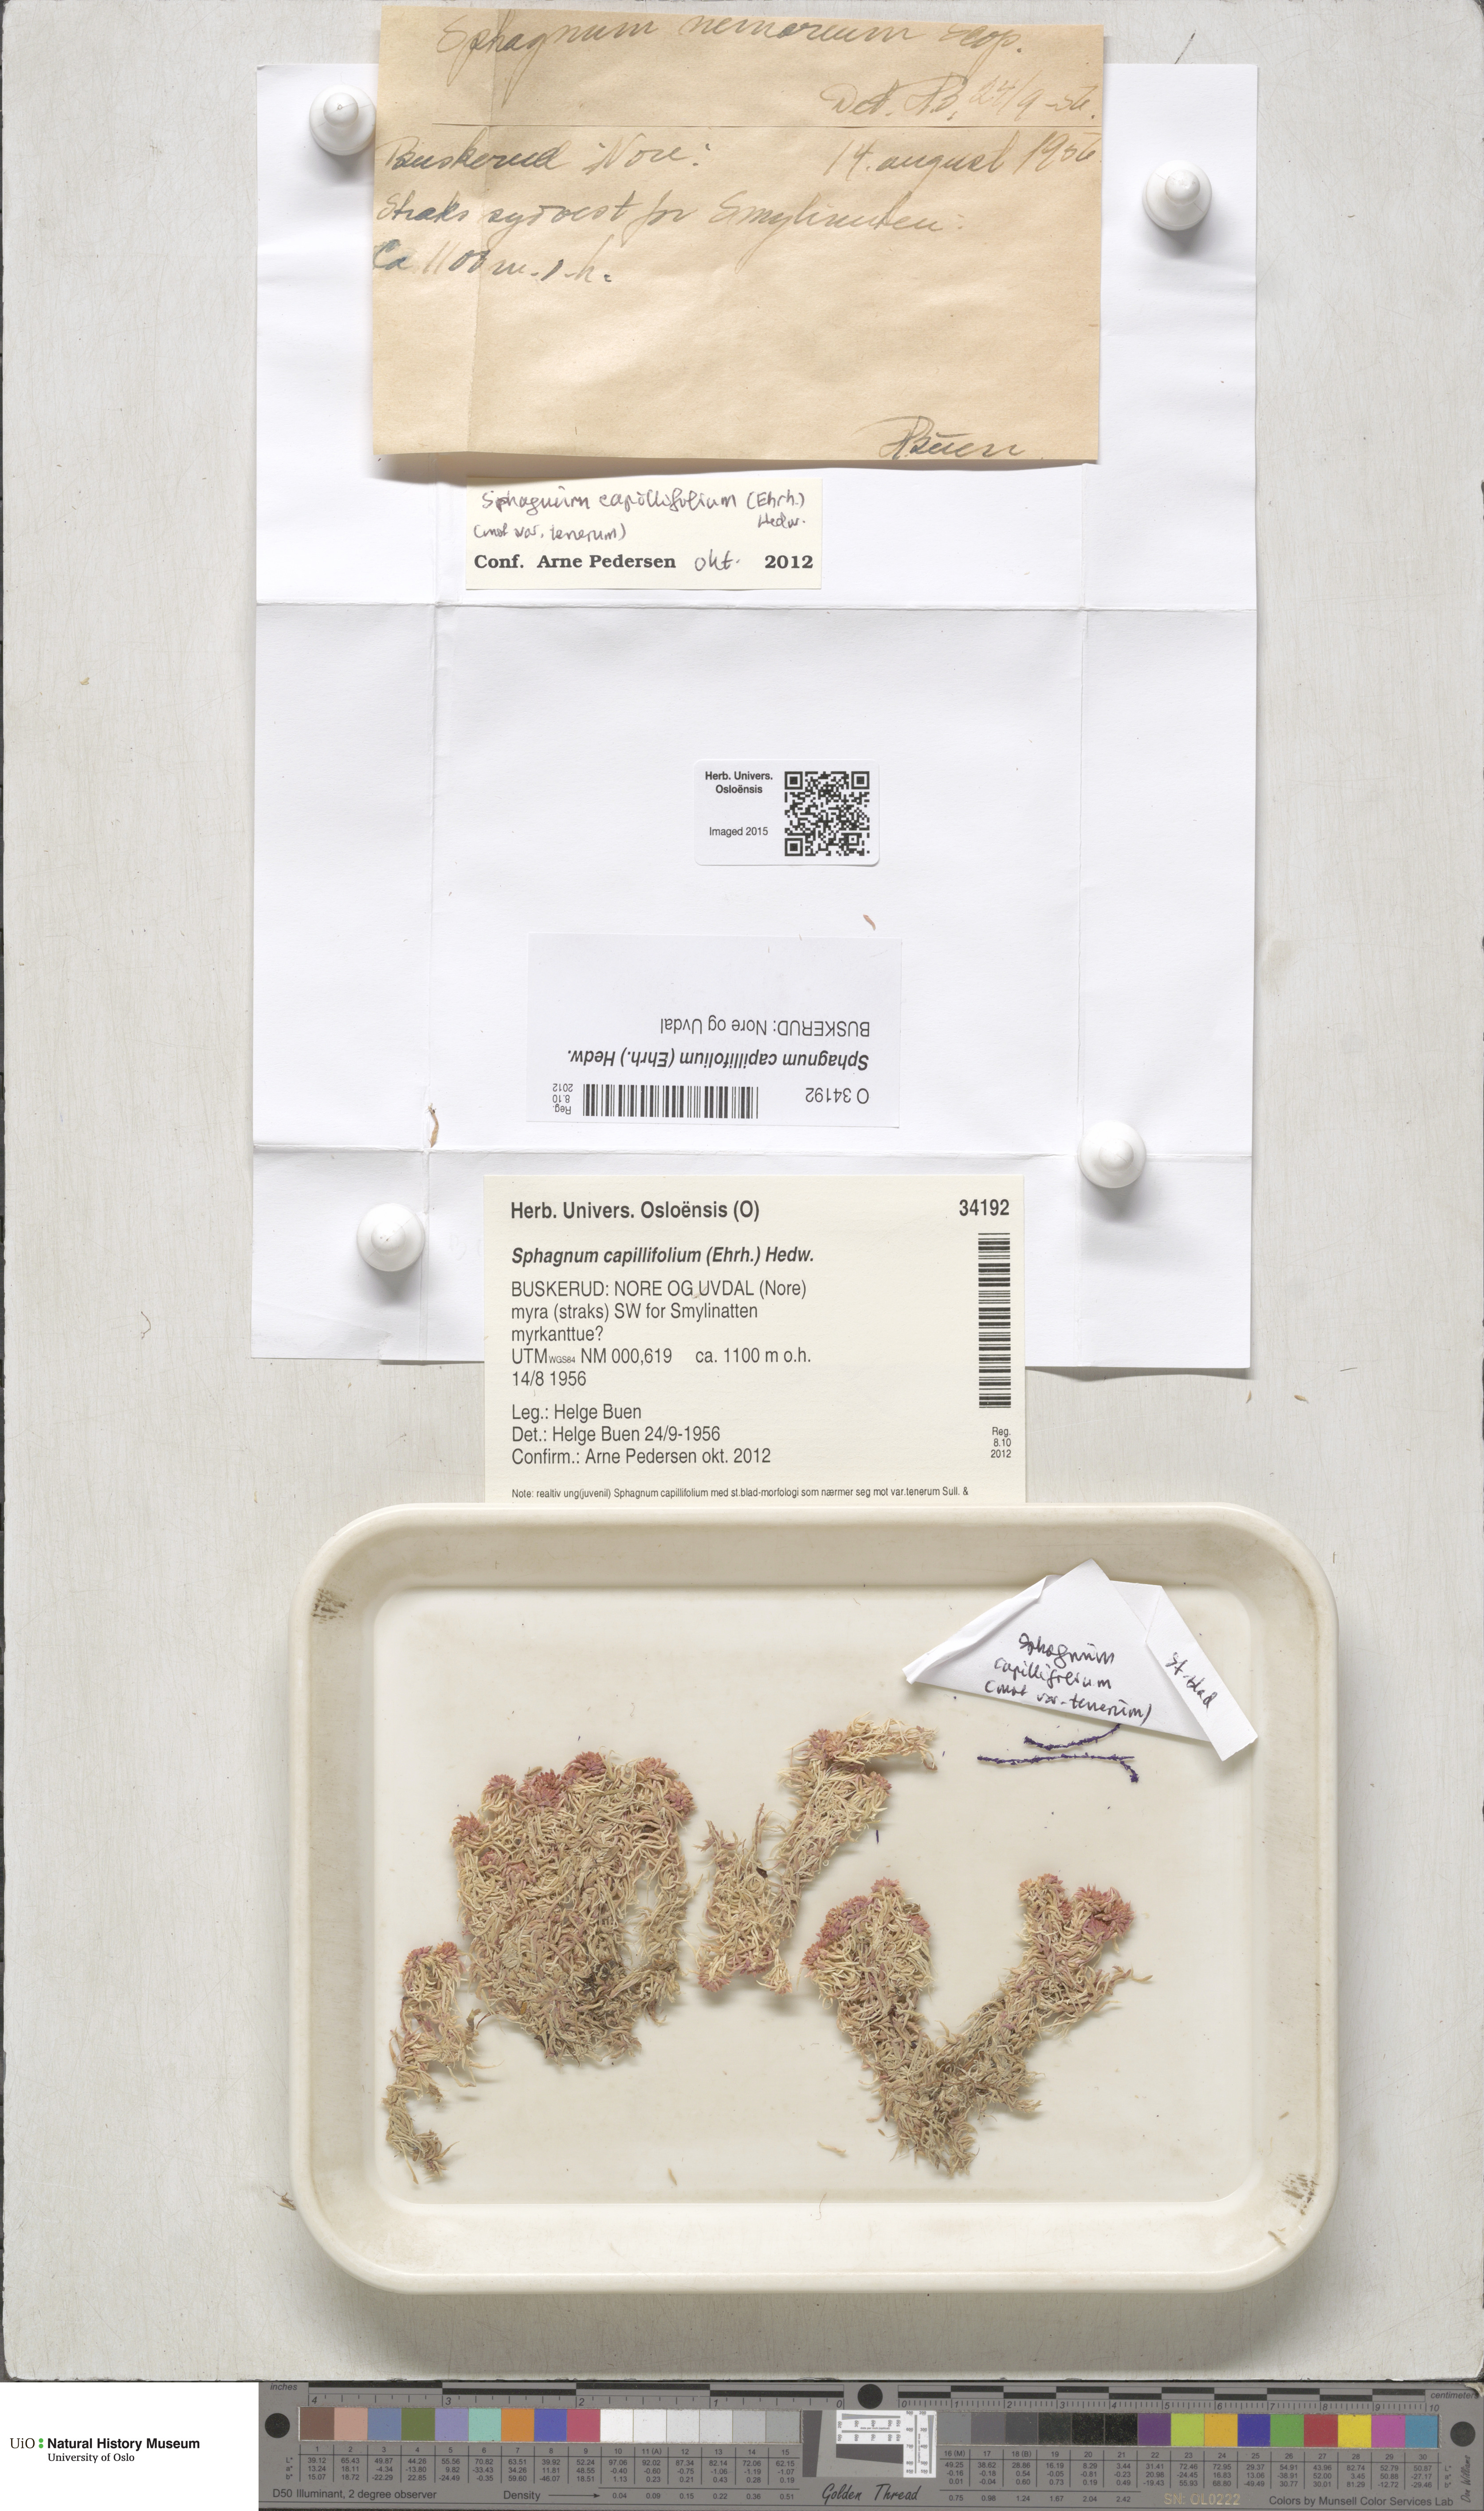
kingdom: Plantae
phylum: Bryophyta
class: Sphagnopsida
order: Sphagnales
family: Sphagnaceae
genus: Sphagnum
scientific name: Sphagnum capillifolium
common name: Small red peat moss
